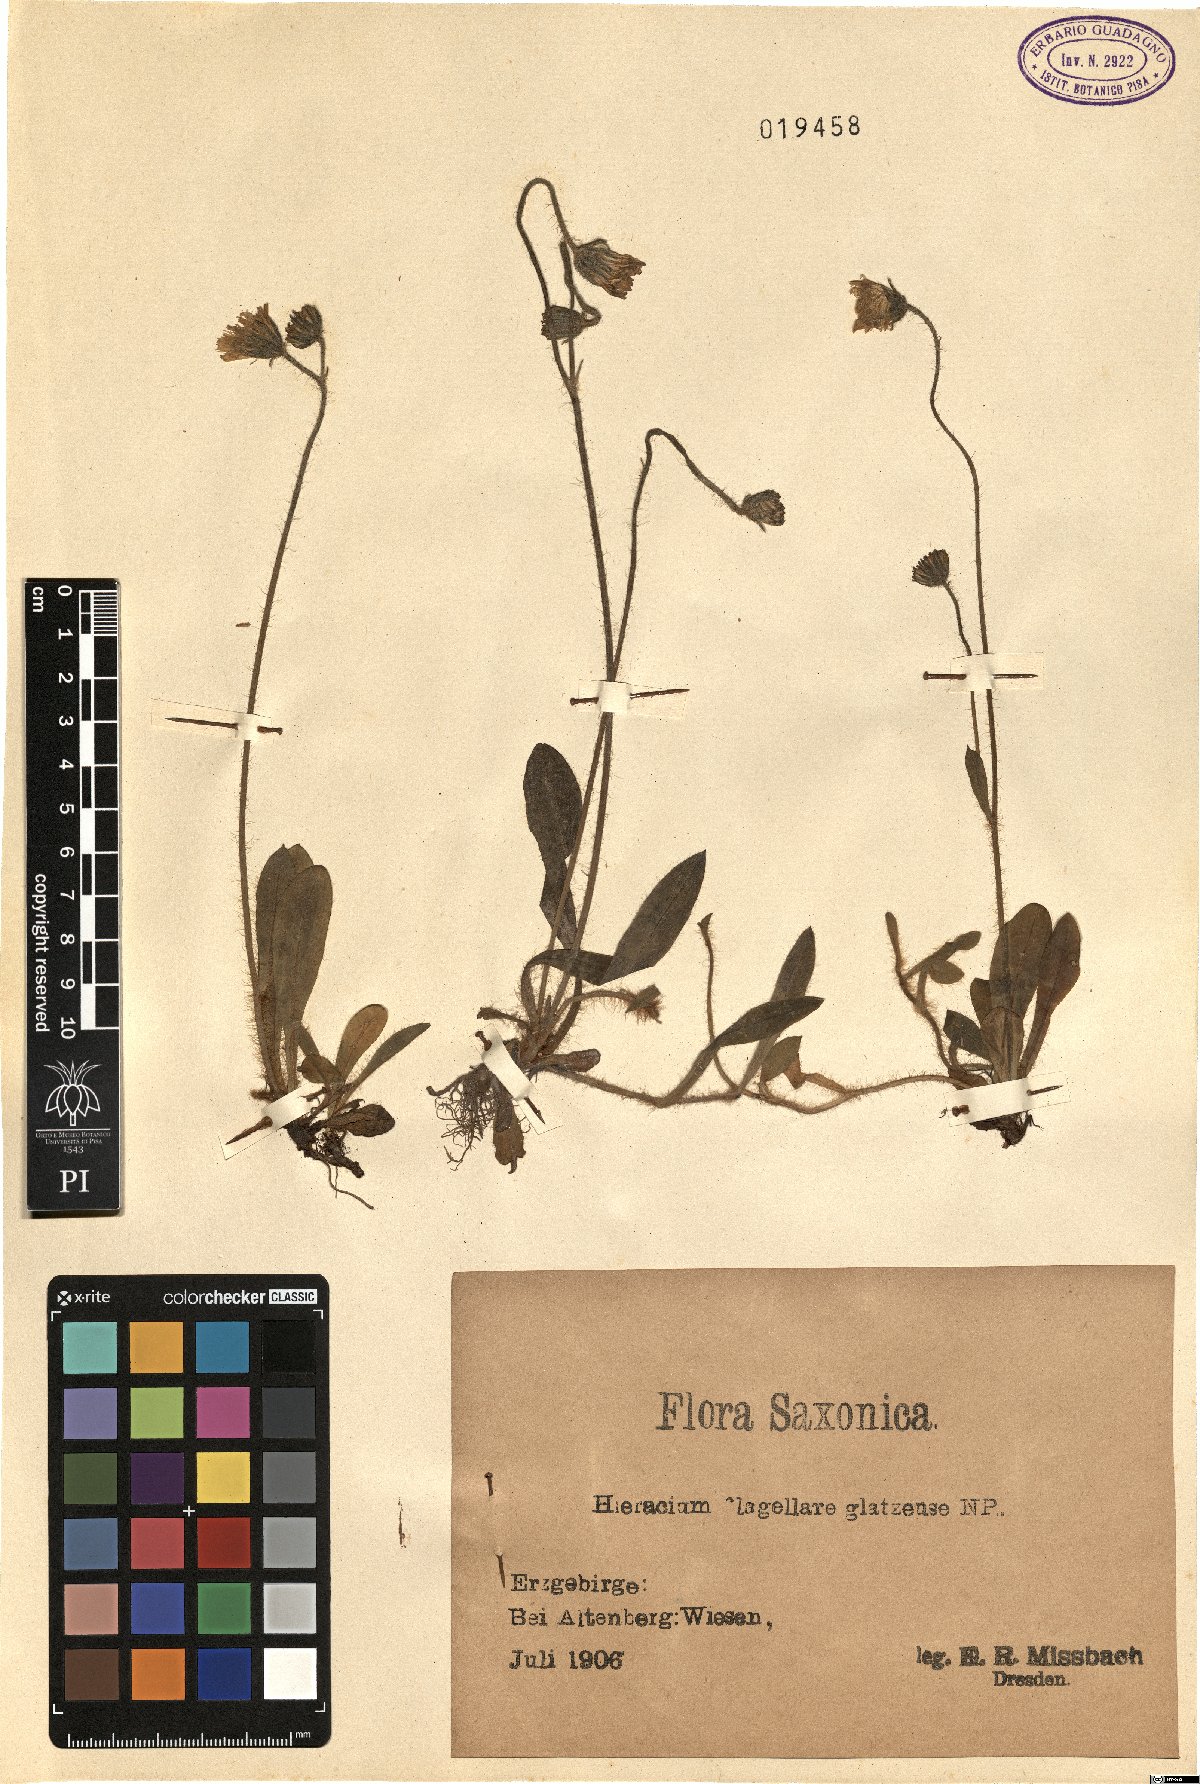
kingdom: Plantae
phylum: Tracheophyta
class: Magnoliopsida
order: Asterales
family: Asteraceae
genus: Pilosella
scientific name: Pilosella flagellaris
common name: Flagellate hawkweed
